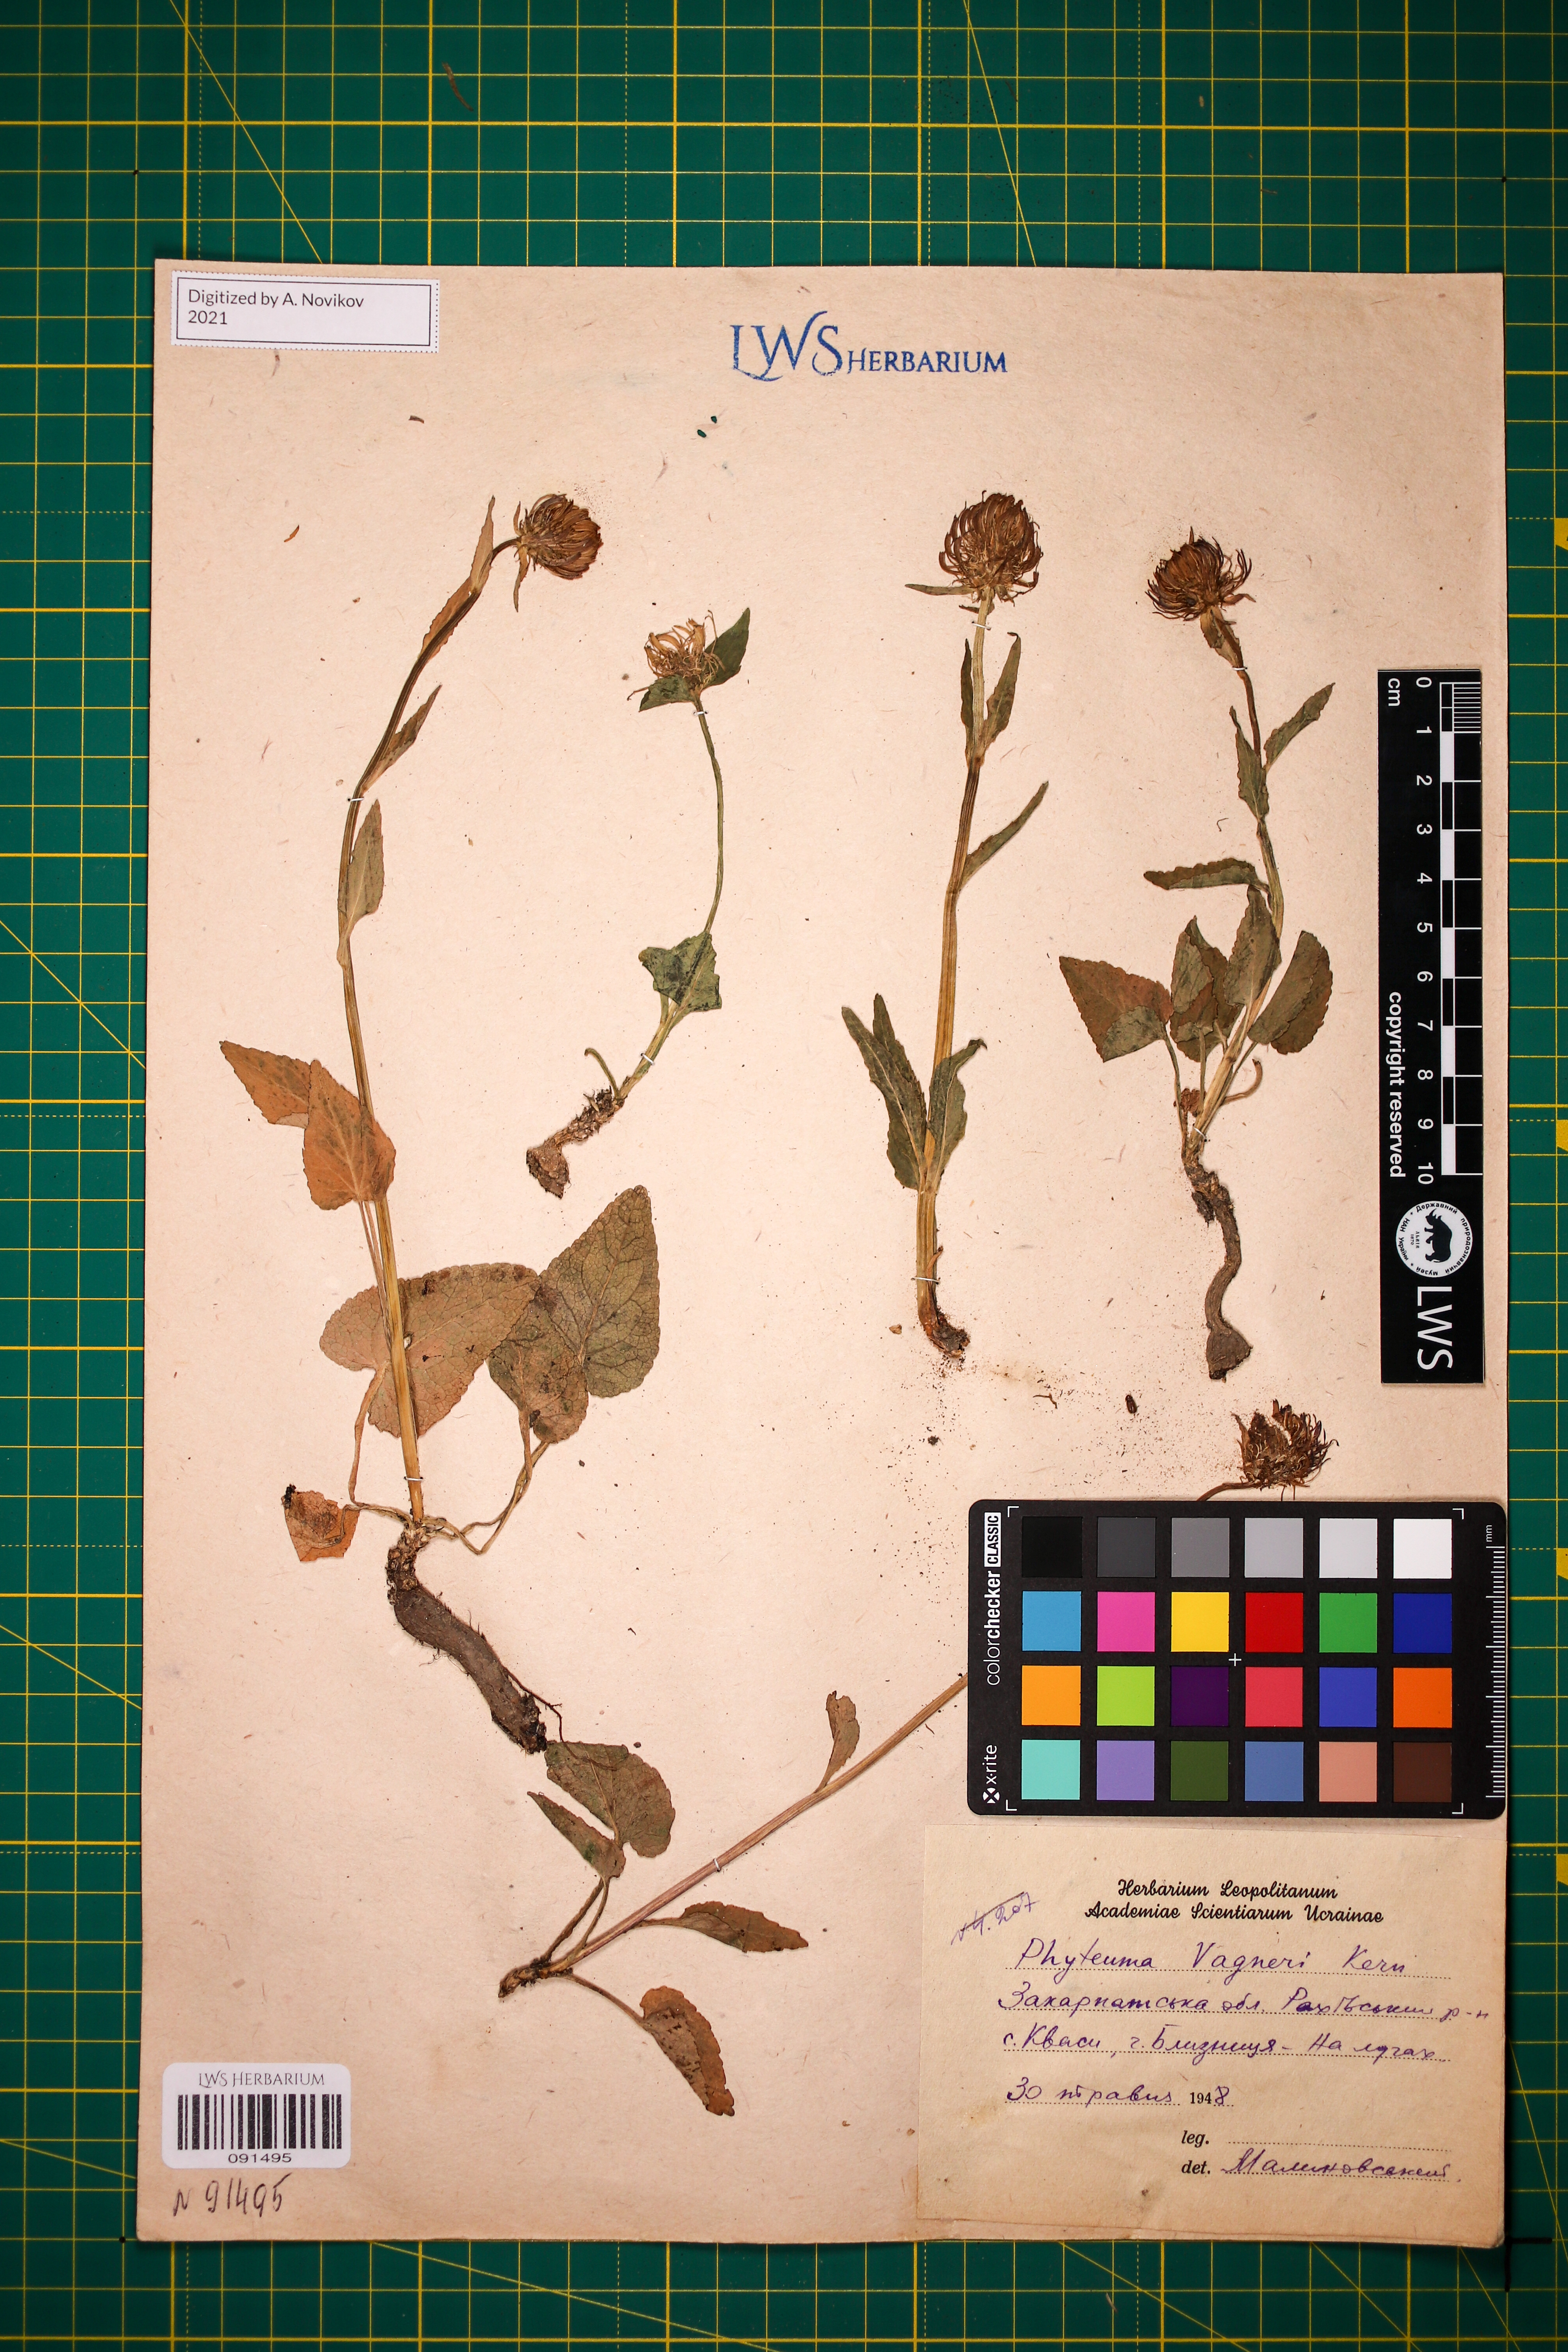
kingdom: Plantae
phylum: Tracheophyta
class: Magnoliopsida
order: Asterales
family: Campanulaceae
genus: Phyteuma
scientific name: Phyteuma vagneri
